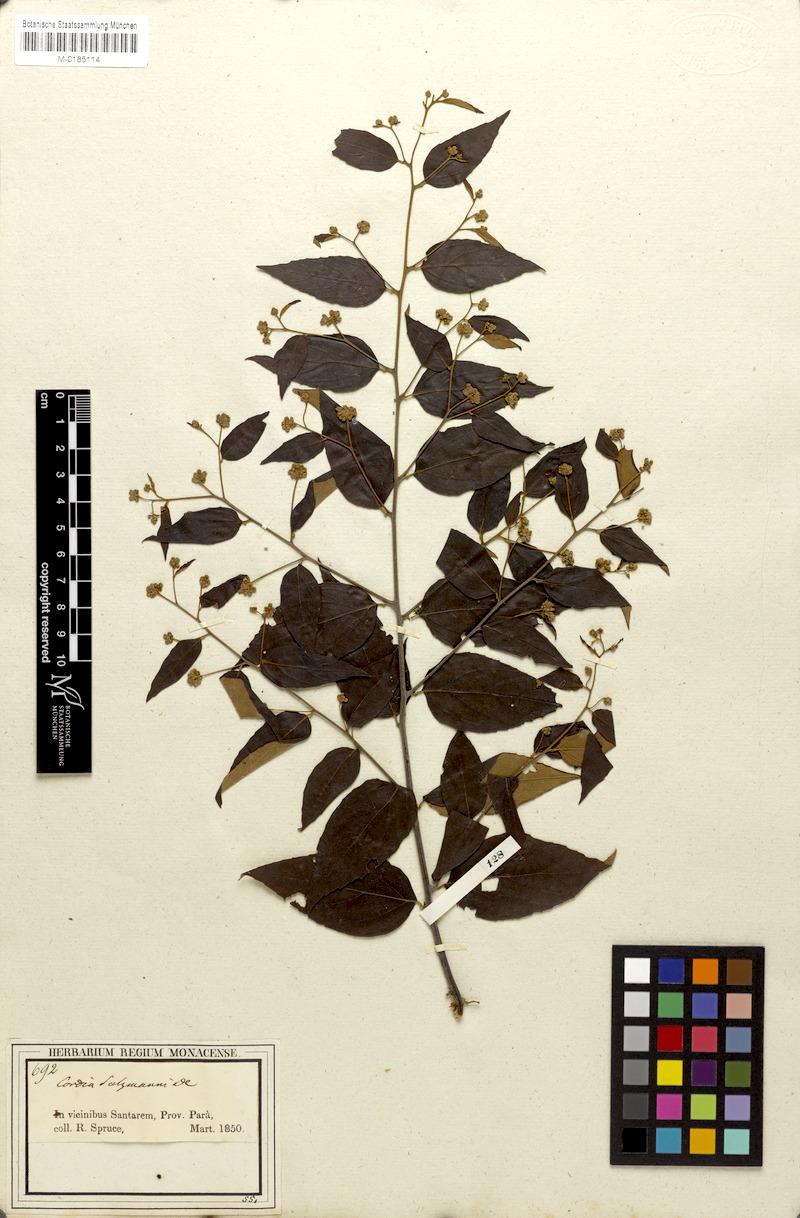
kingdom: Plantae
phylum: Tracheophyta
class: Magnoliopsida
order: Boraginales
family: Cordiaceae
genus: Varronia
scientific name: Varronia polycephala
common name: Black-sage
